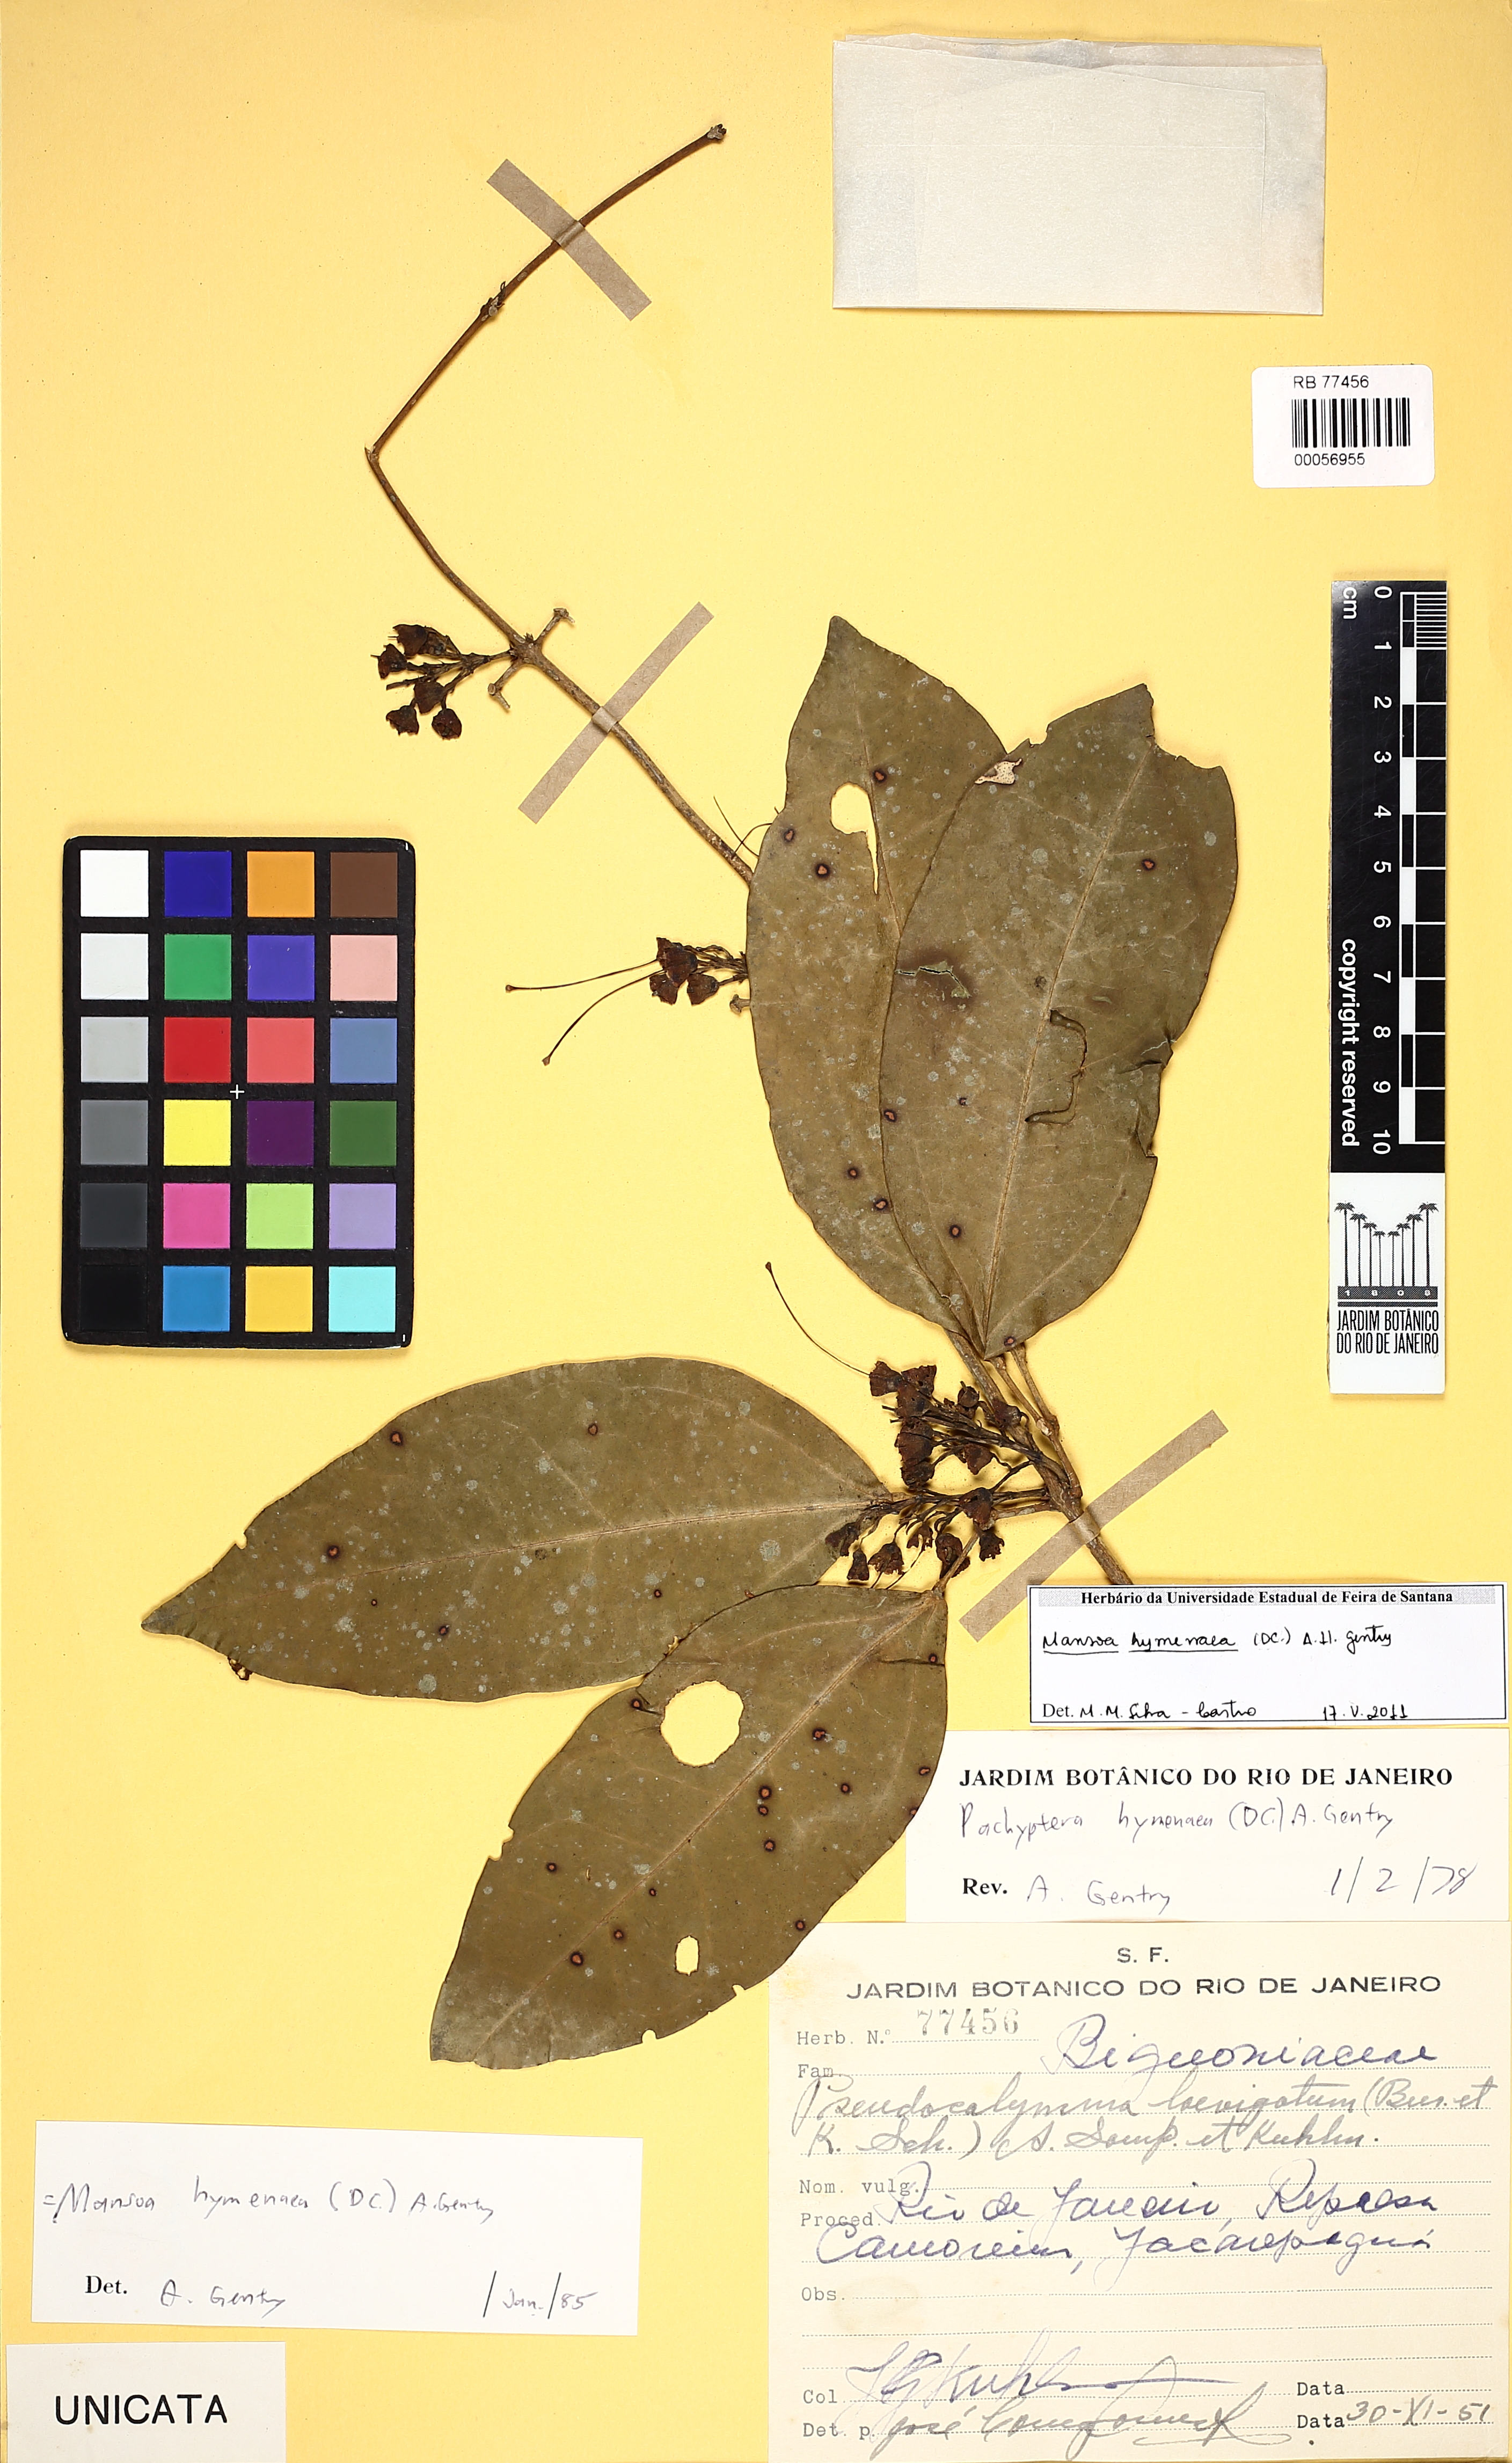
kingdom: Plantae
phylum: Tracheophyta
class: Magnoliopsida
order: Lamiales
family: Bignoniaceae
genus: Mansoa
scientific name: Mansoa hymenaea
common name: Membranous garlic vine
